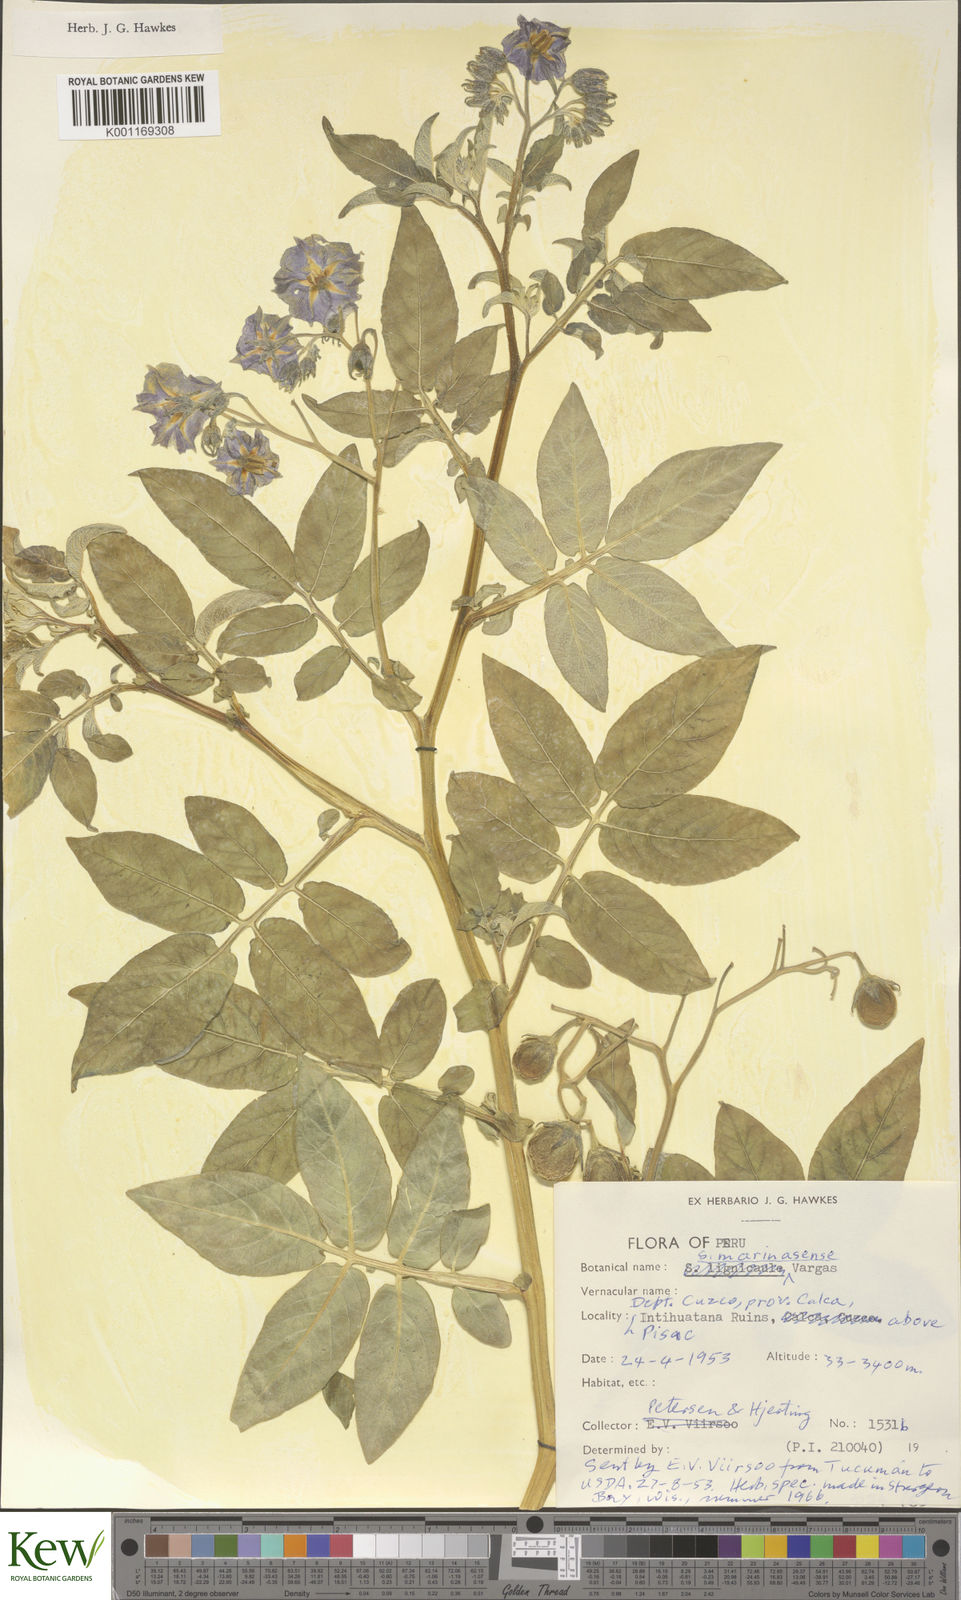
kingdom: Plantae
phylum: Tracheophyta
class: Magnoliopsida
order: Solanales
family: Solanaceae
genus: Solanum
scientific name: Solanum candolleanum
